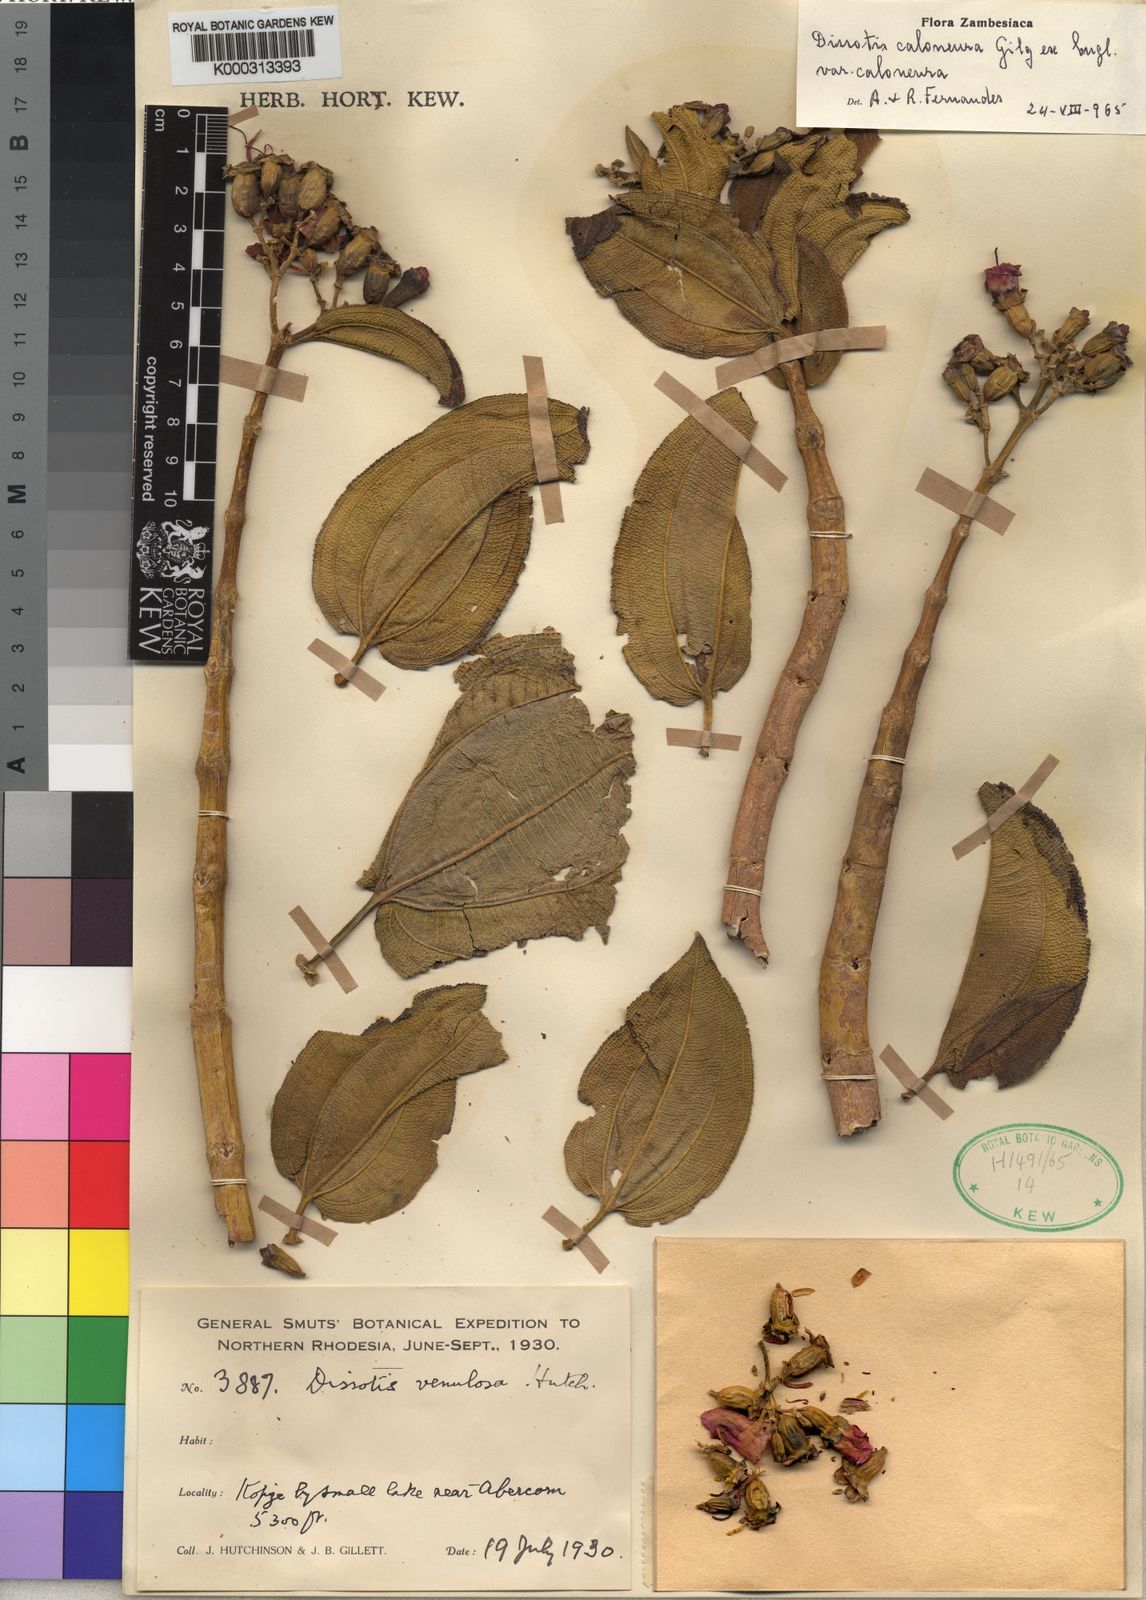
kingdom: Plantae
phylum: Tracheophyta
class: Magnoliopsida
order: Myrtales
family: Melastomataceae
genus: Dissotidendron
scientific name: Dissotidendron caloneurum
